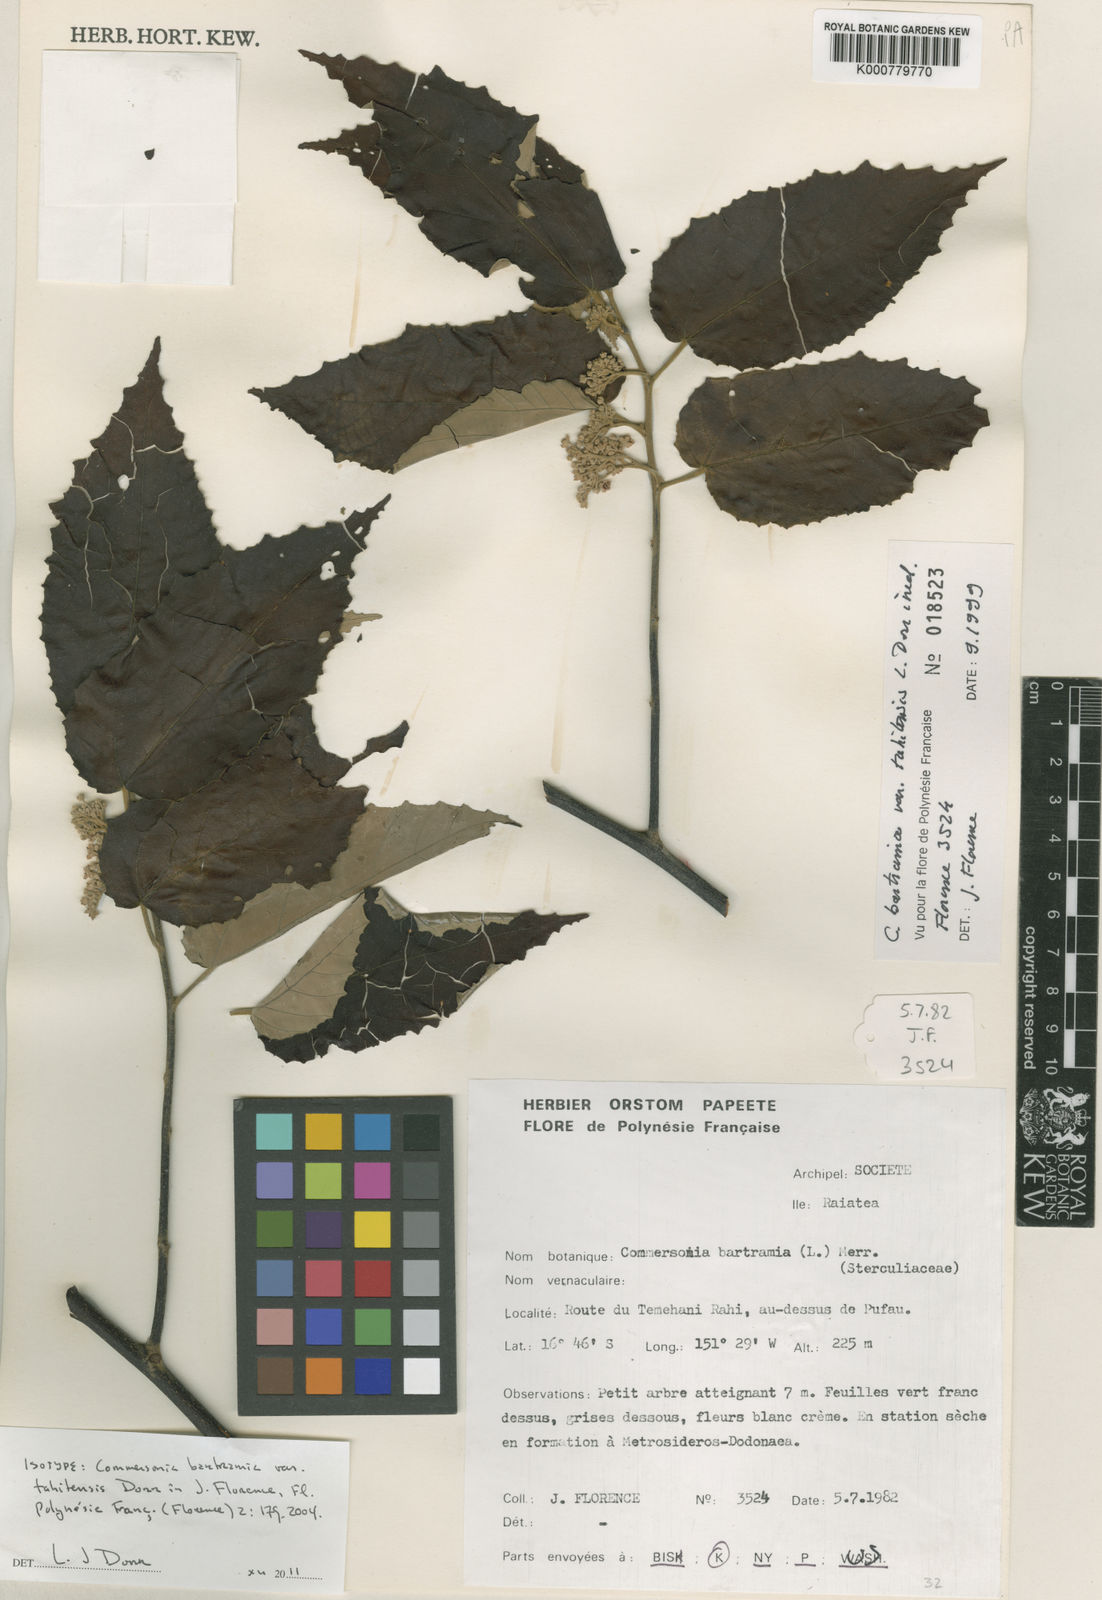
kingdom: Plantae
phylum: Tracheophyta
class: Magnoliopsida
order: Malvales
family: Malvaceae
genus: Commersonia
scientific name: Commersonia tahitensis
